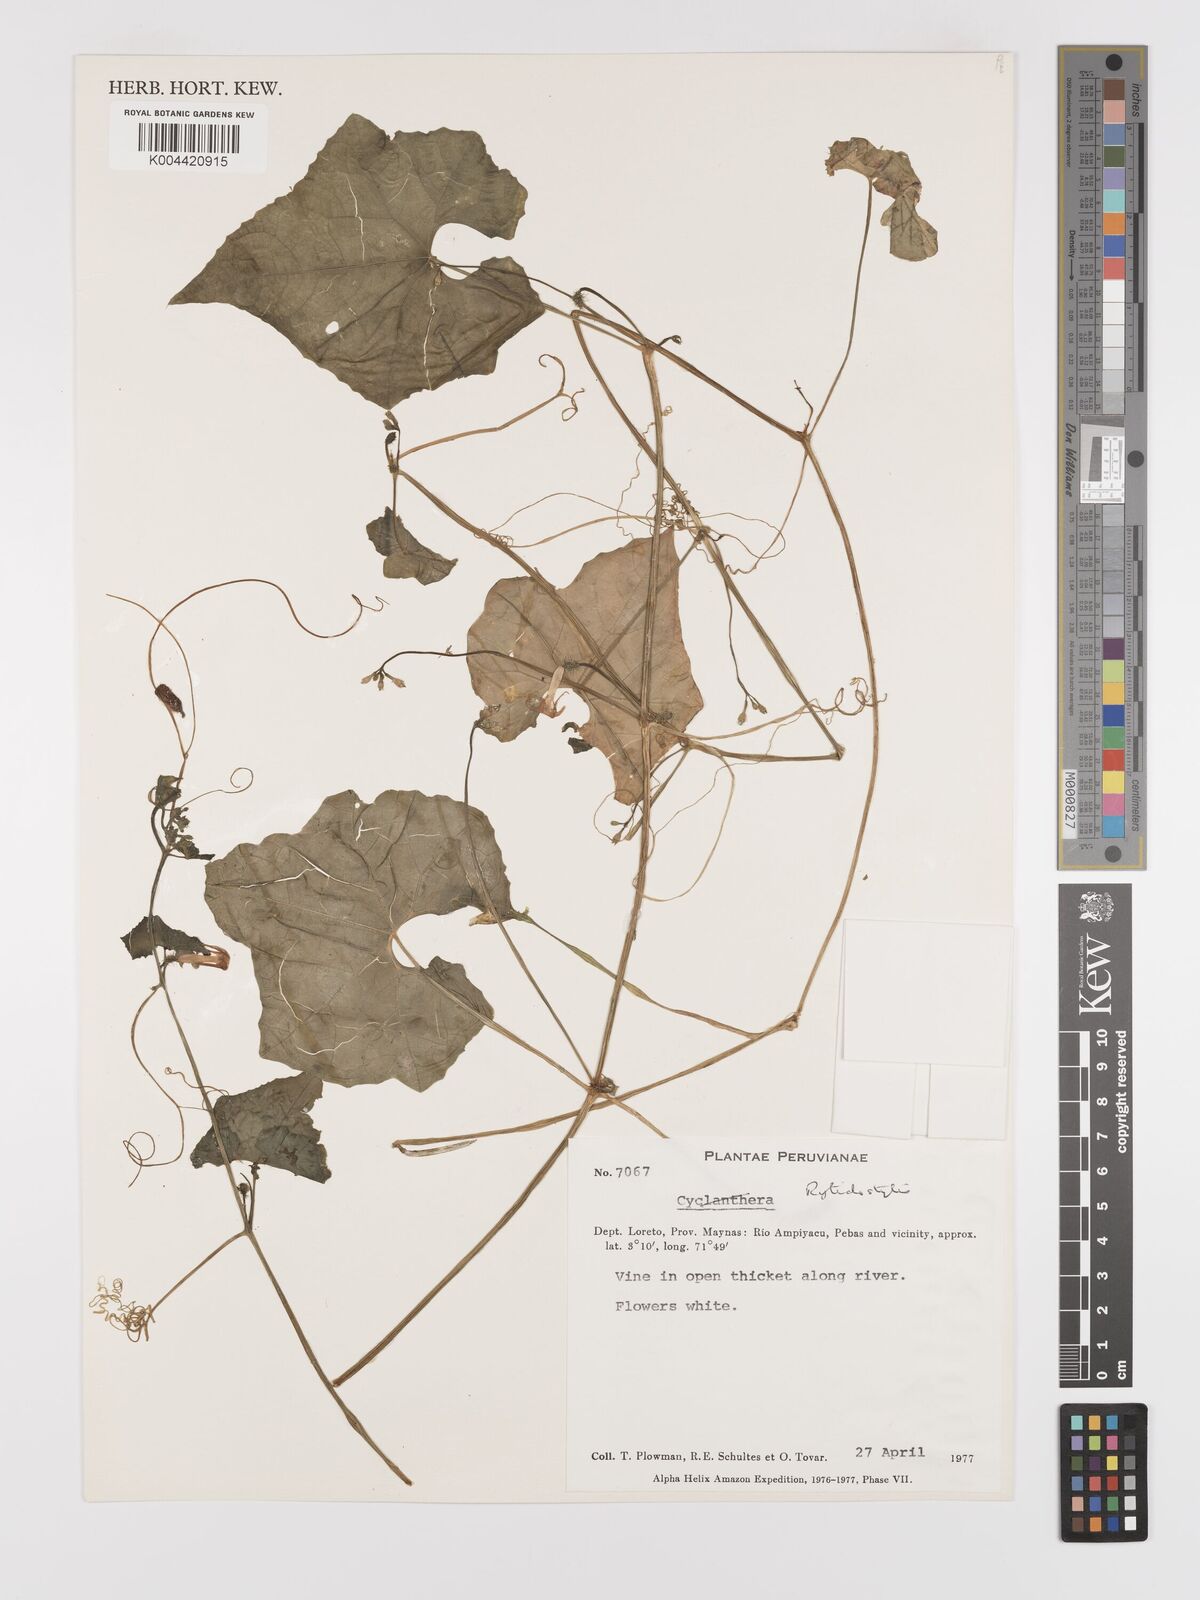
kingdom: Plantae
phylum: Tracheophyta
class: Magnoliopsida
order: Cucurbitales
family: Cucurbitaceae
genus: Cyclanthera
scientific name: Cyclanthera carthagenensis
